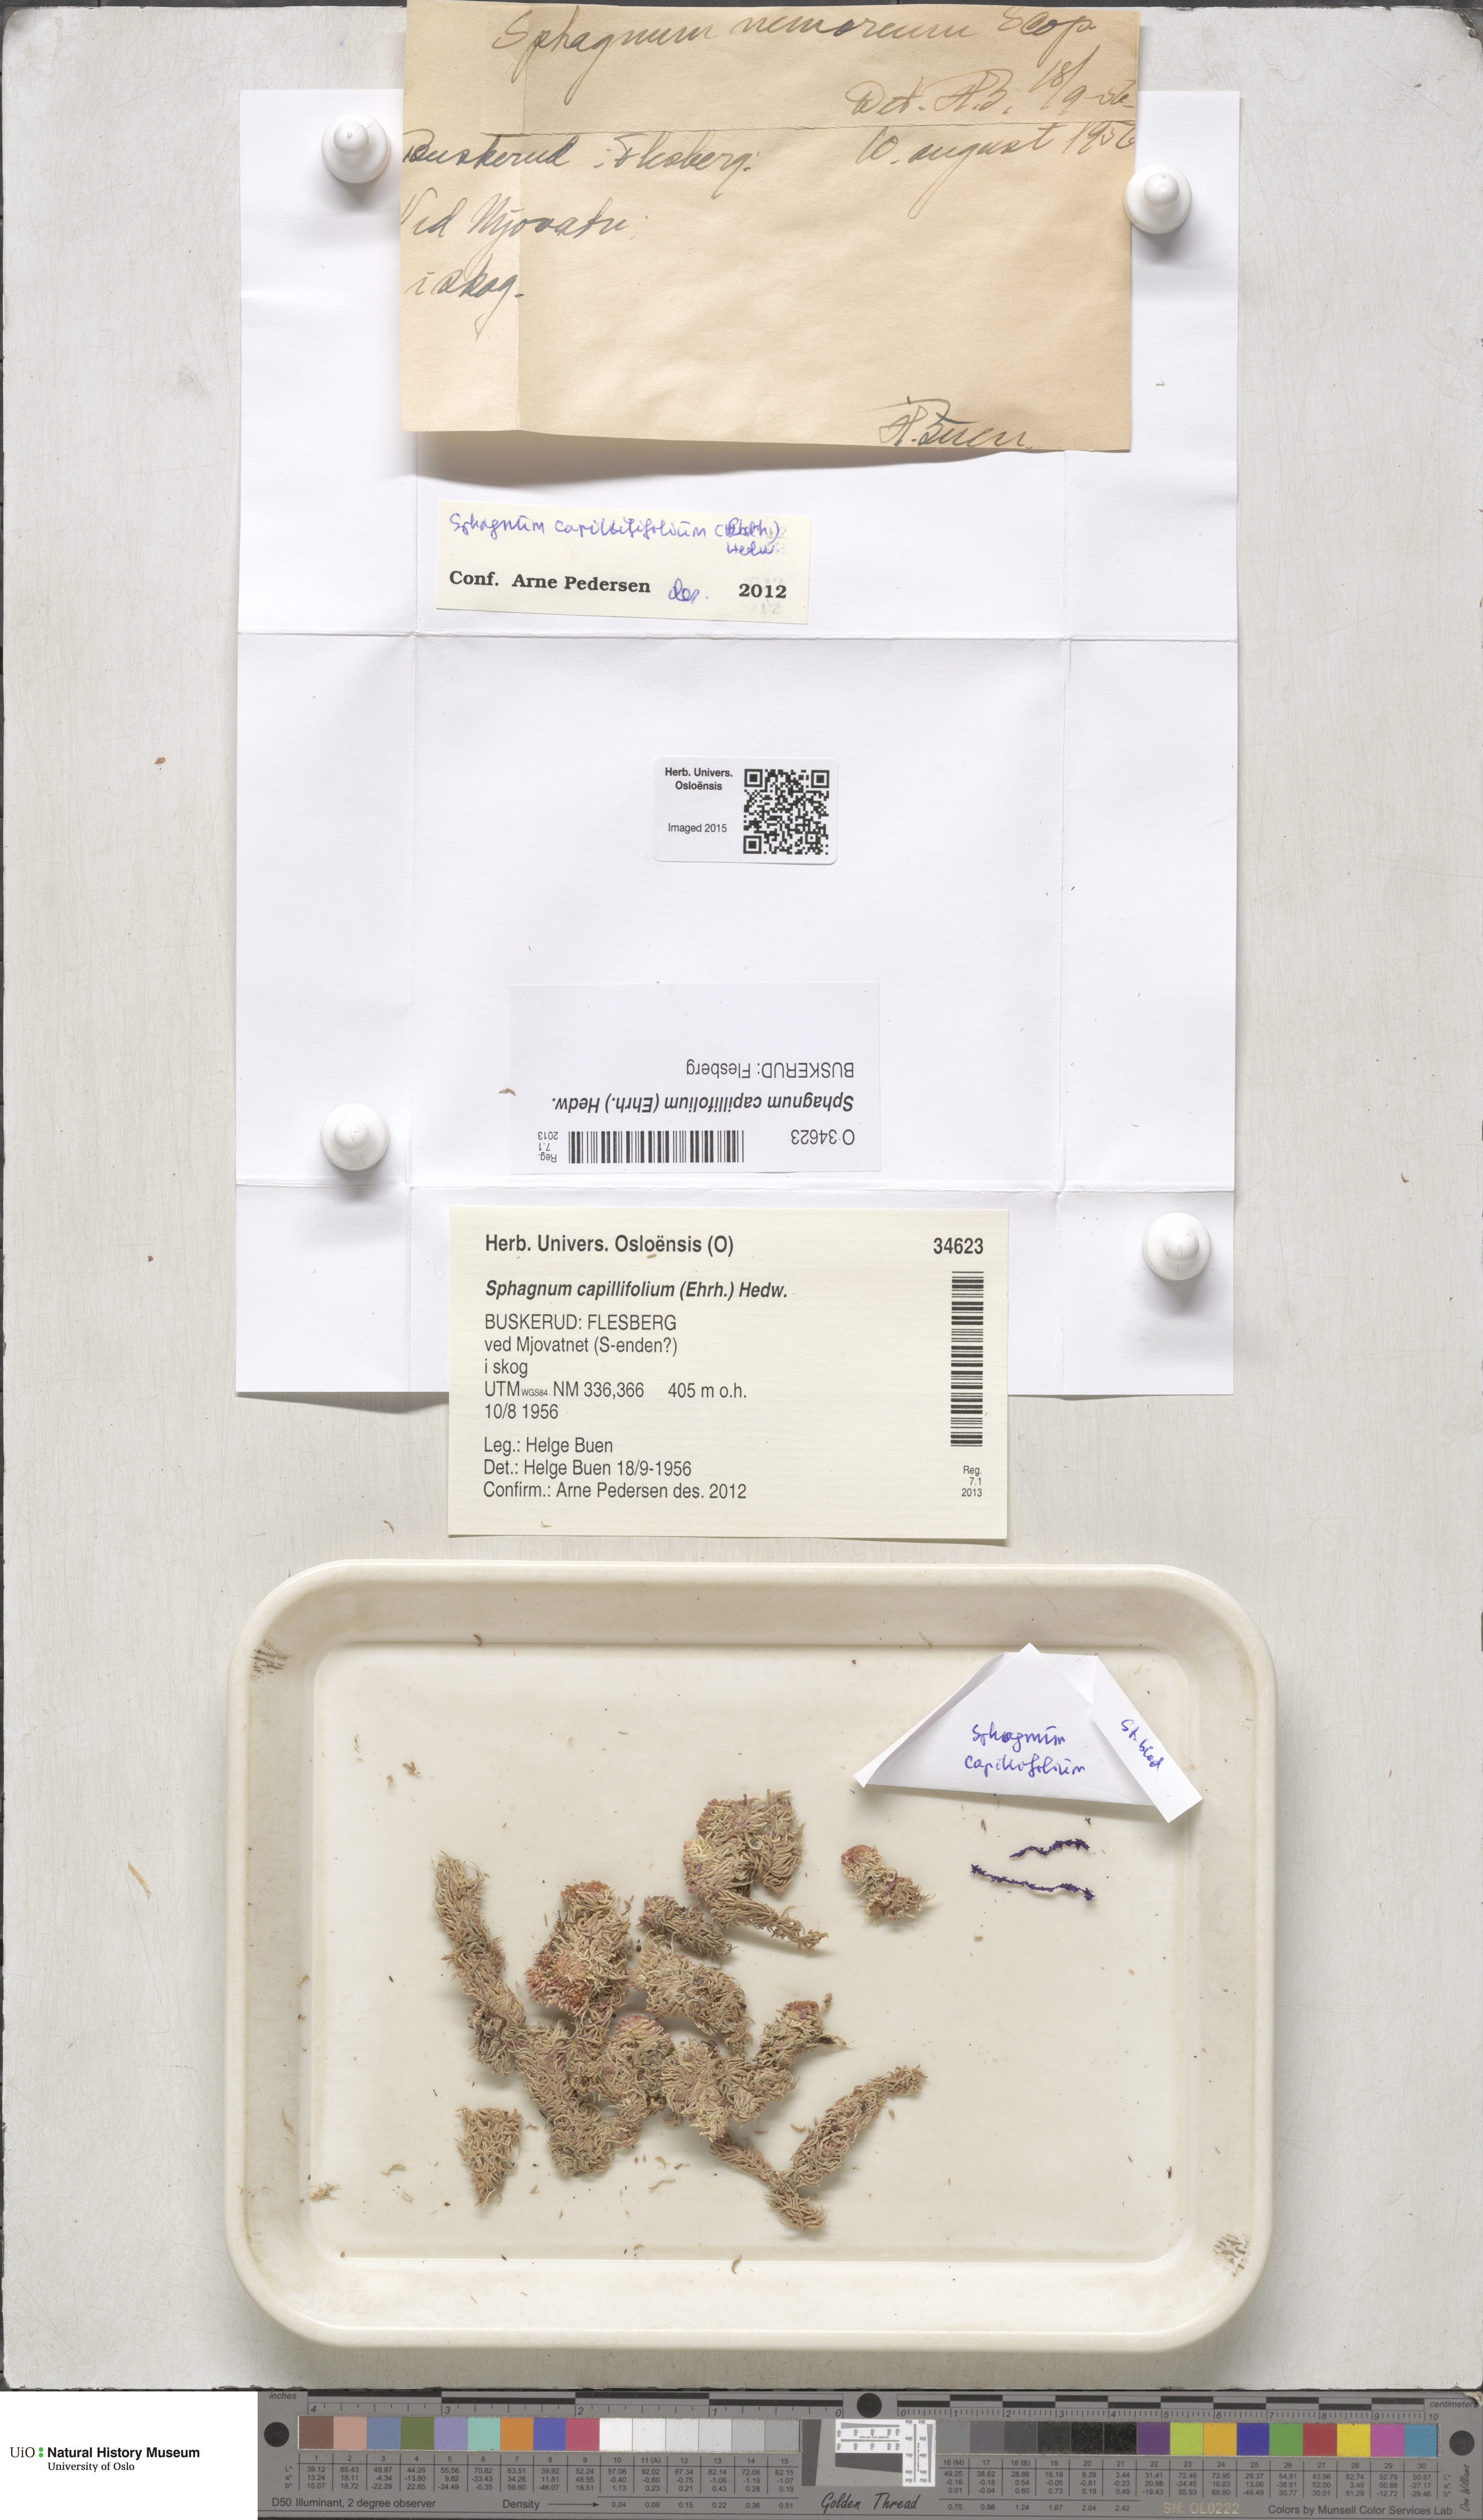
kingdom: Plantae
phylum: Bryophyta
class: Sphagnopsida
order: Sphagnales
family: Sphagnaceae
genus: Sphagnum
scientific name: Sphagnum capillifolium
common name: Small red peat moss
